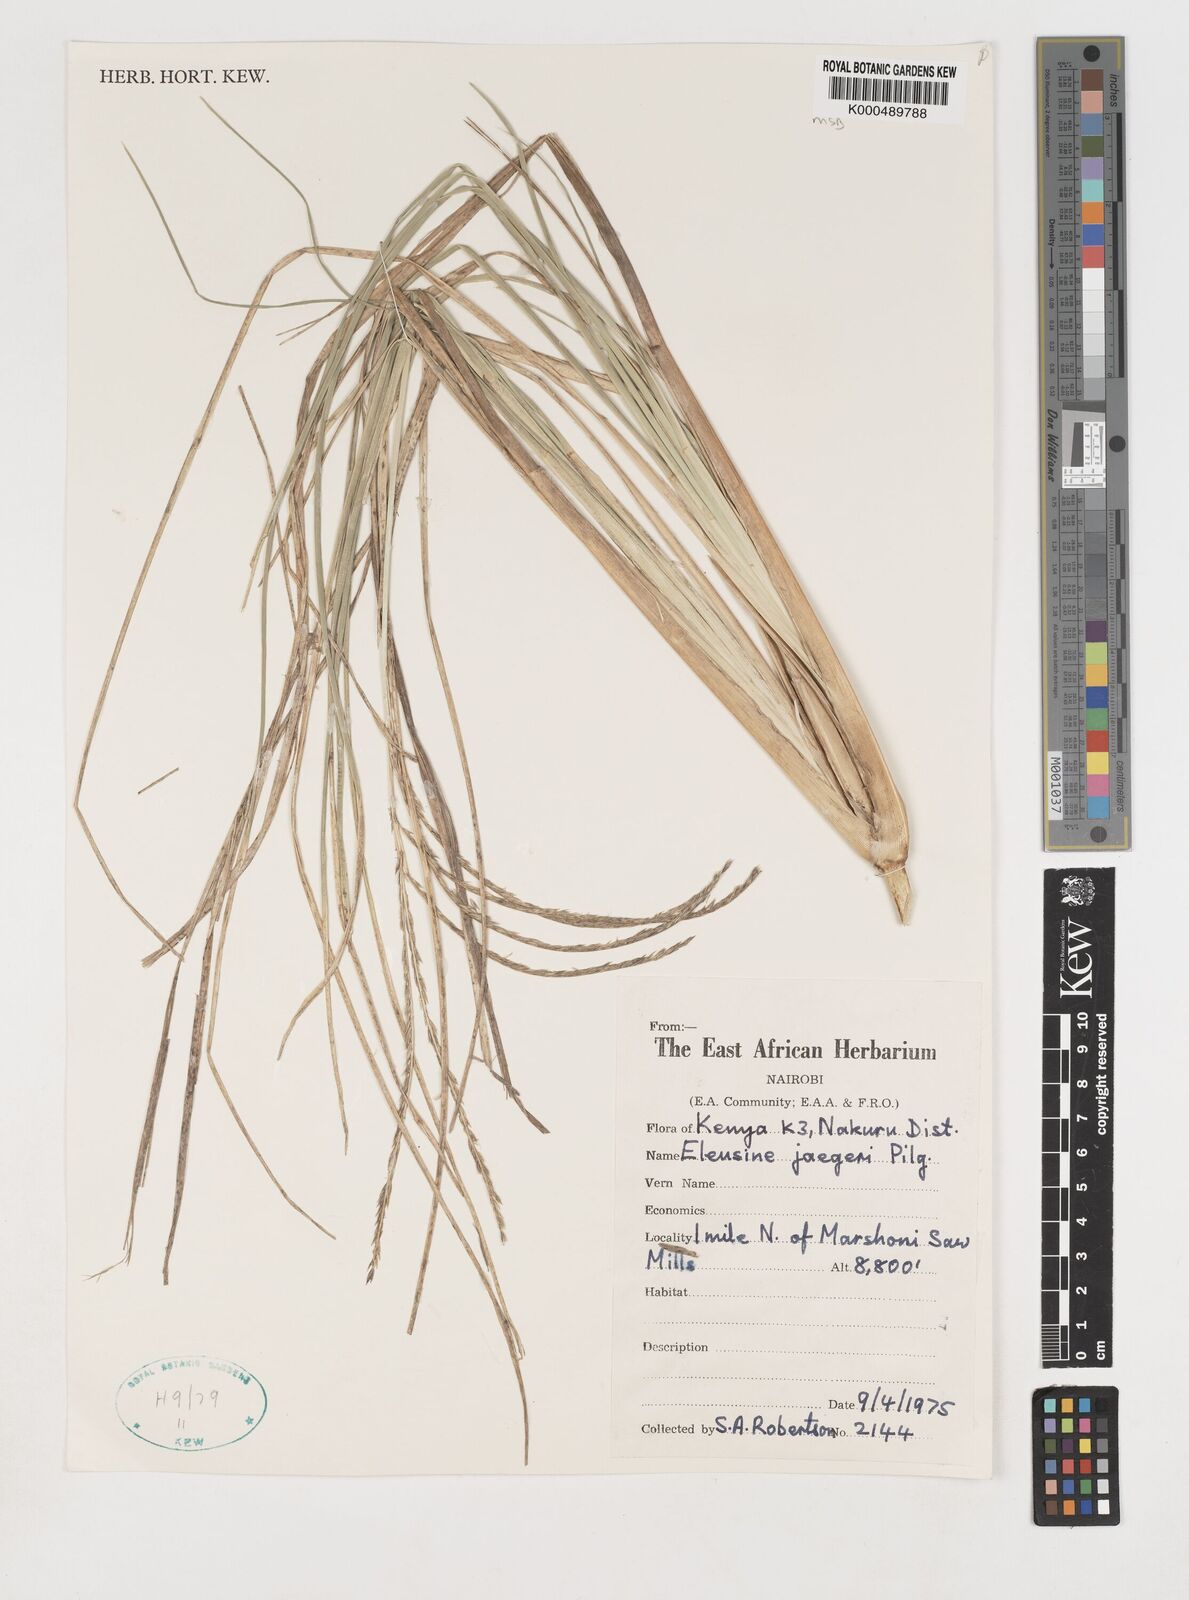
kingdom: Plantae
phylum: Tracheophyta
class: Liliopsida
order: Poales
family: Poaceae
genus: Eleusine
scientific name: Eleusine jaegeri
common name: Manyatta grass
